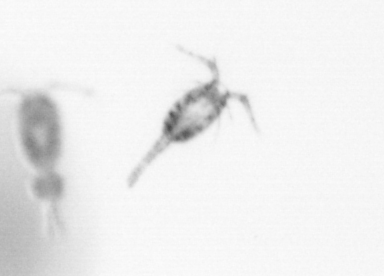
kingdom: Animalia
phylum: Arthropoda
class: Copepoda
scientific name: Copepoda
